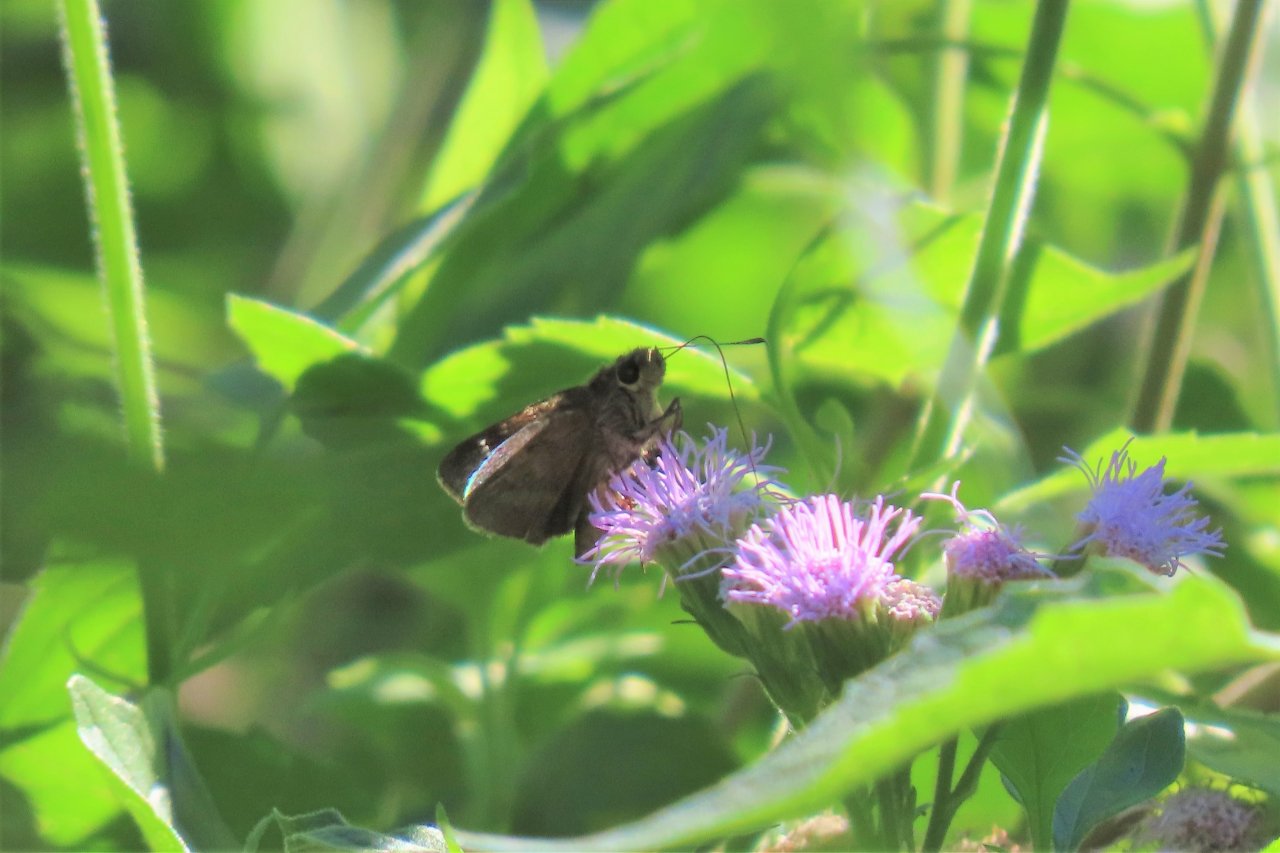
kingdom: Animalia
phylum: Arthropoda
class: Insecta
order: Lepidoptera
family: Hesperiidae
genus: Cymaenes
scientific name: Cymaenes odilia
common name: Fawn-spotted Skipper
